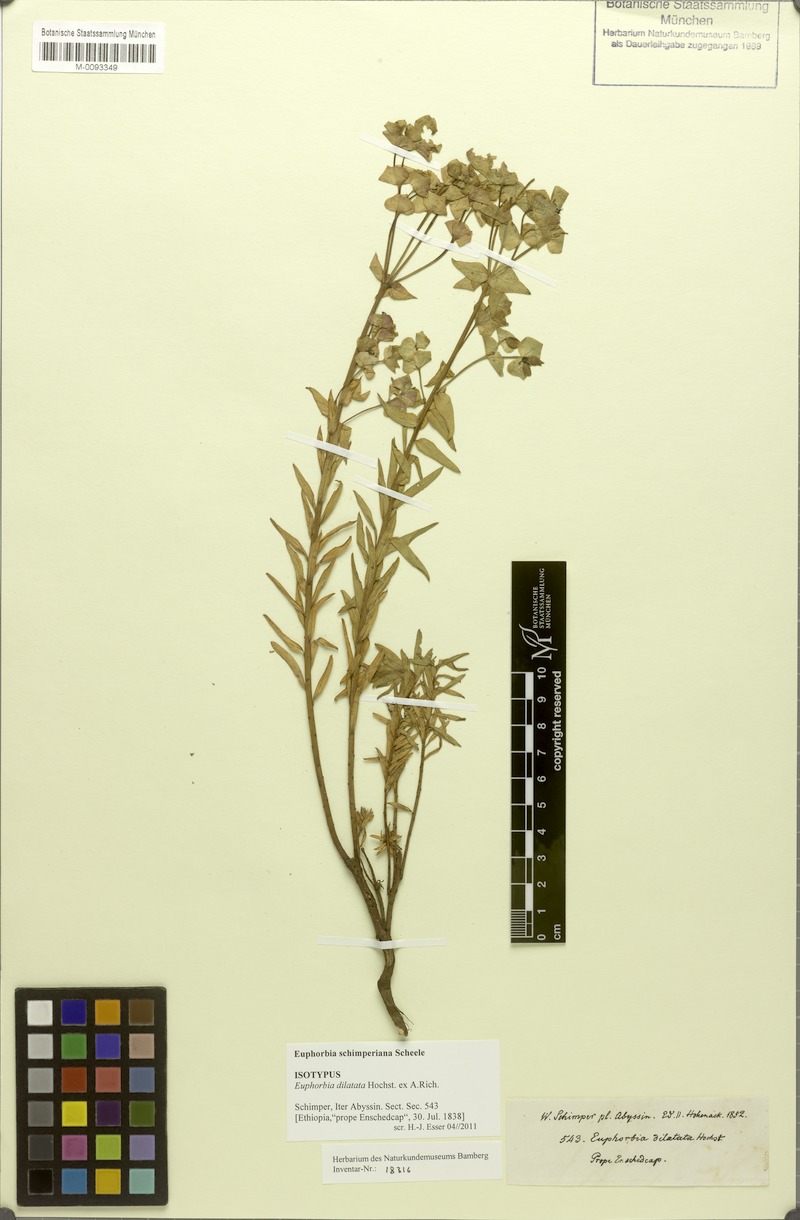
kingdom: Plantae
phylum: Tracheophyta
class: Magnoliopsida
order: Malpighiales
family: Euphorbiaceae
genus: Euphorbia
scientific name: Euphorbia schimperiana
